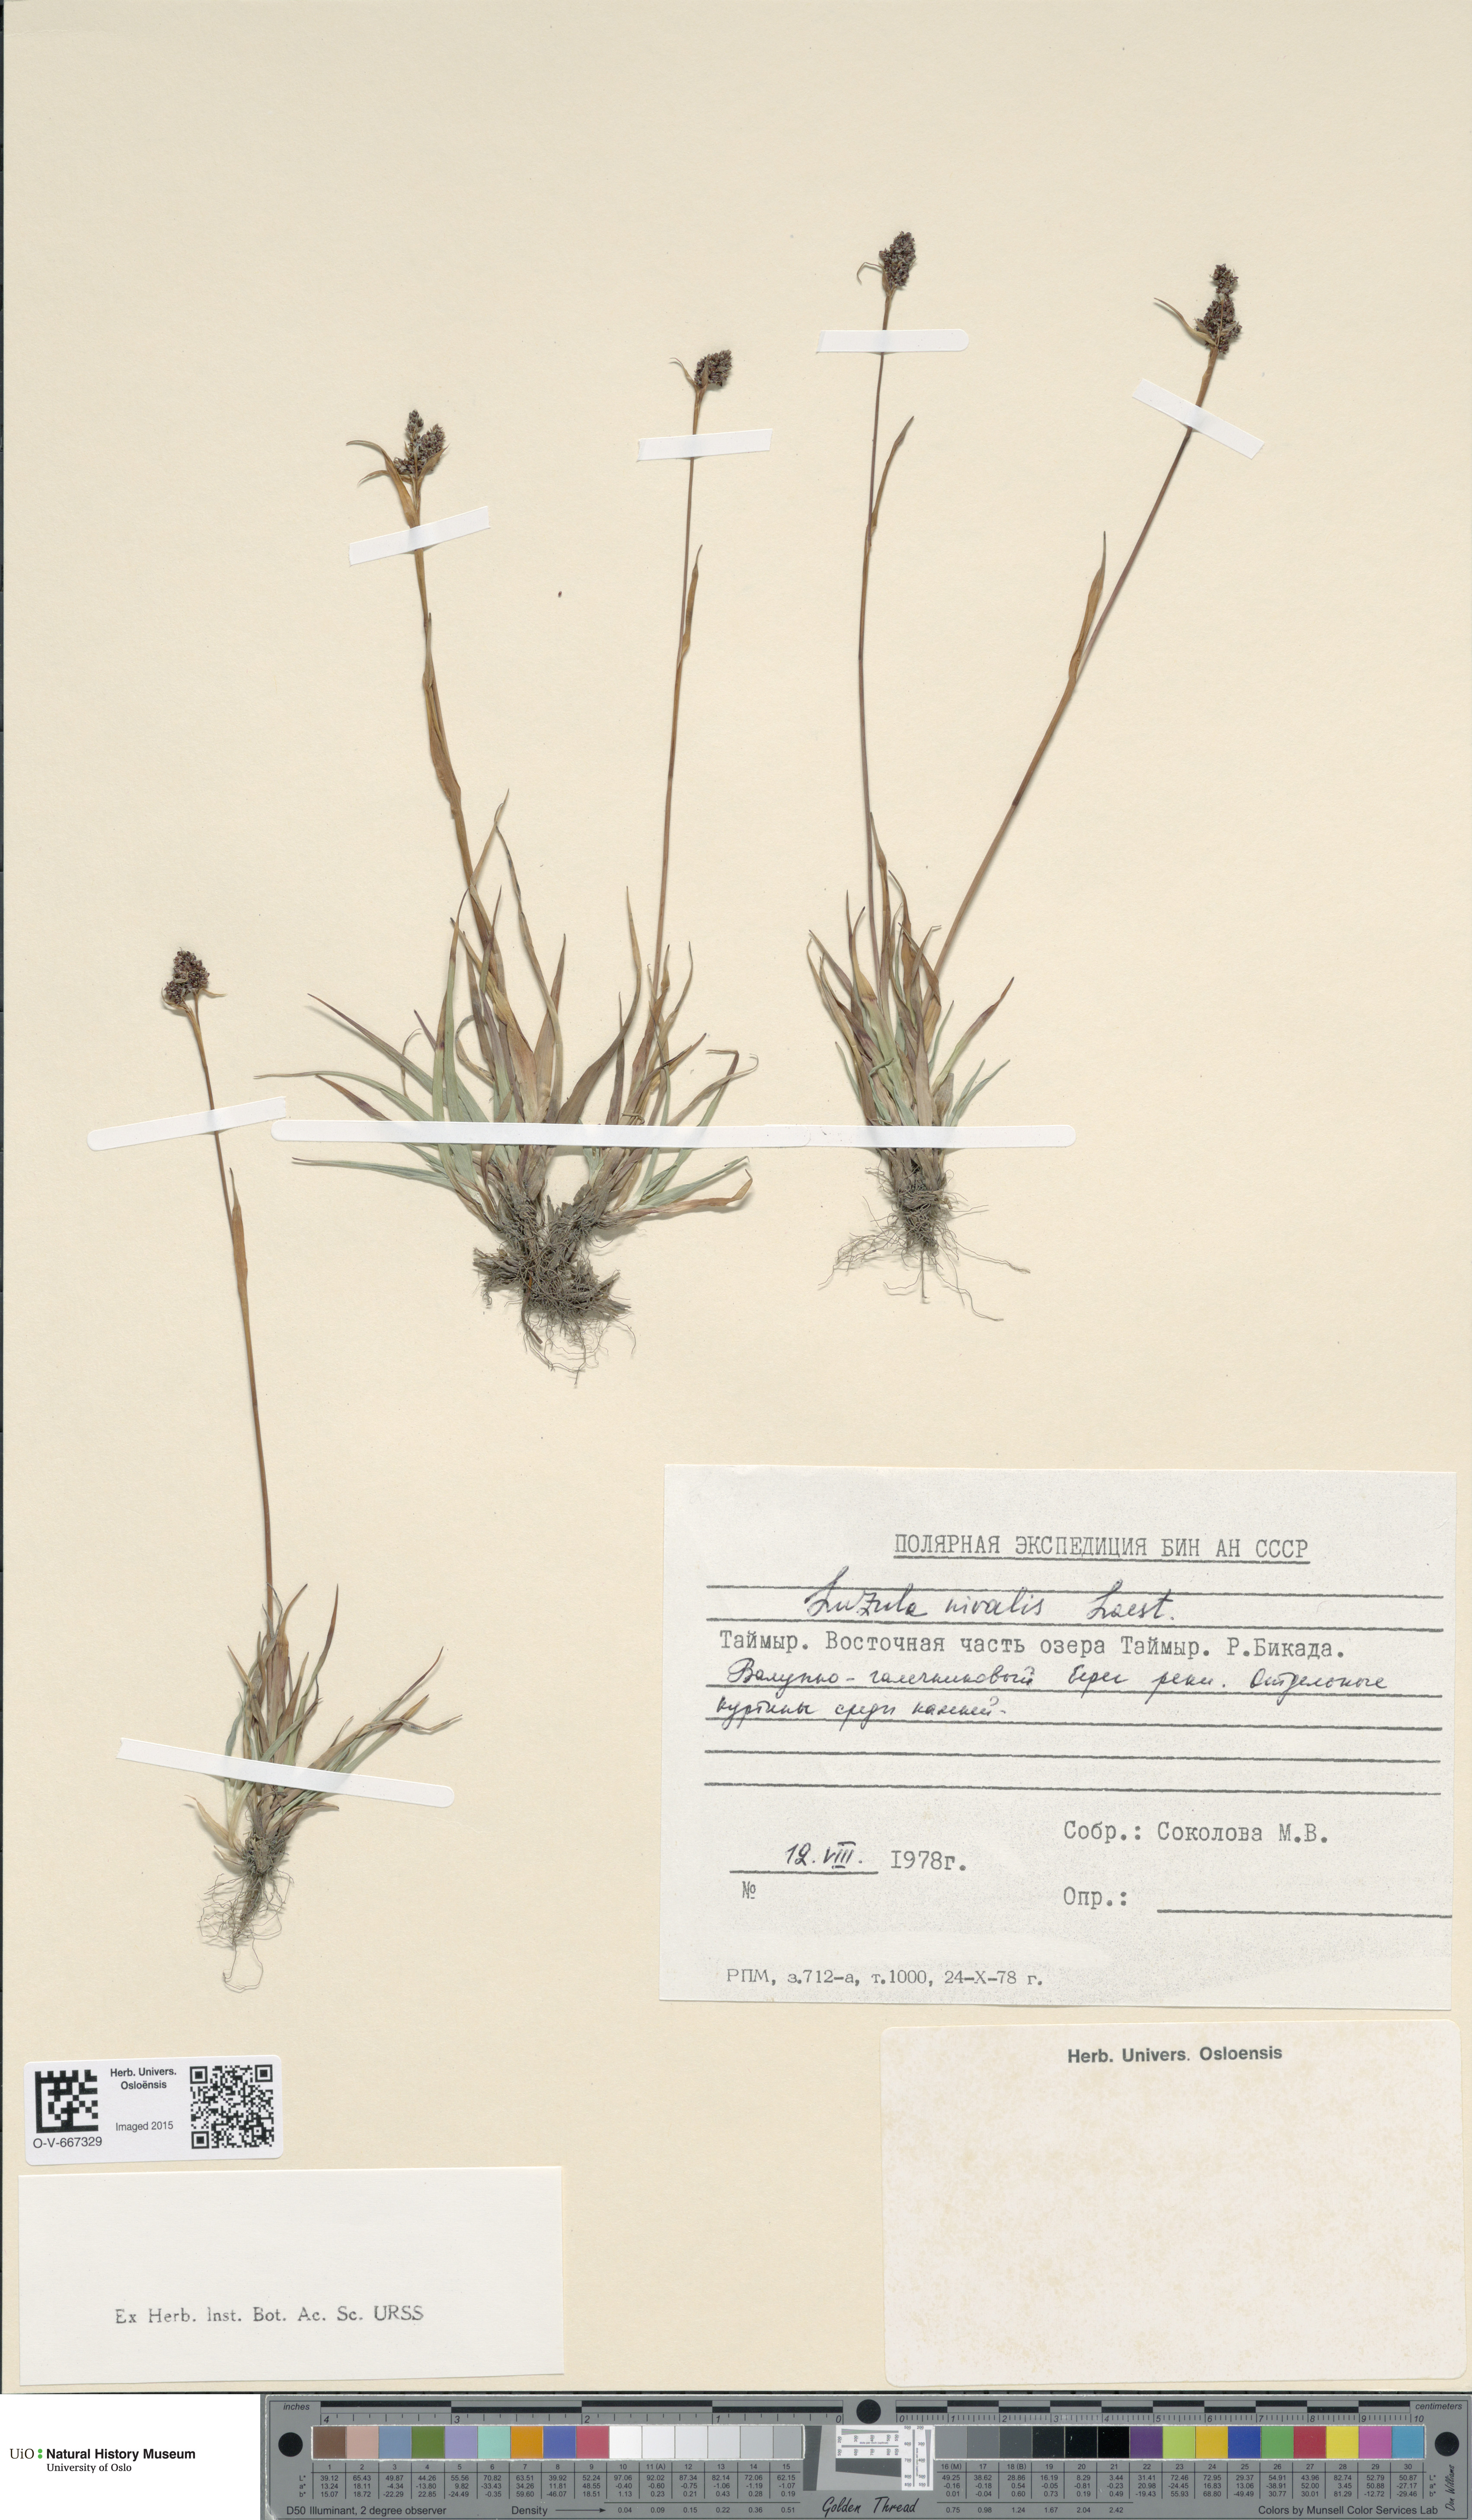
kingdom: Plantae
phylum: Tracheophyta
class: Liliopsida
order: Poales
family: Juncaceae
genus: Luzula
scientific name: Luzula nivalis
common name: Arctic woodrush
